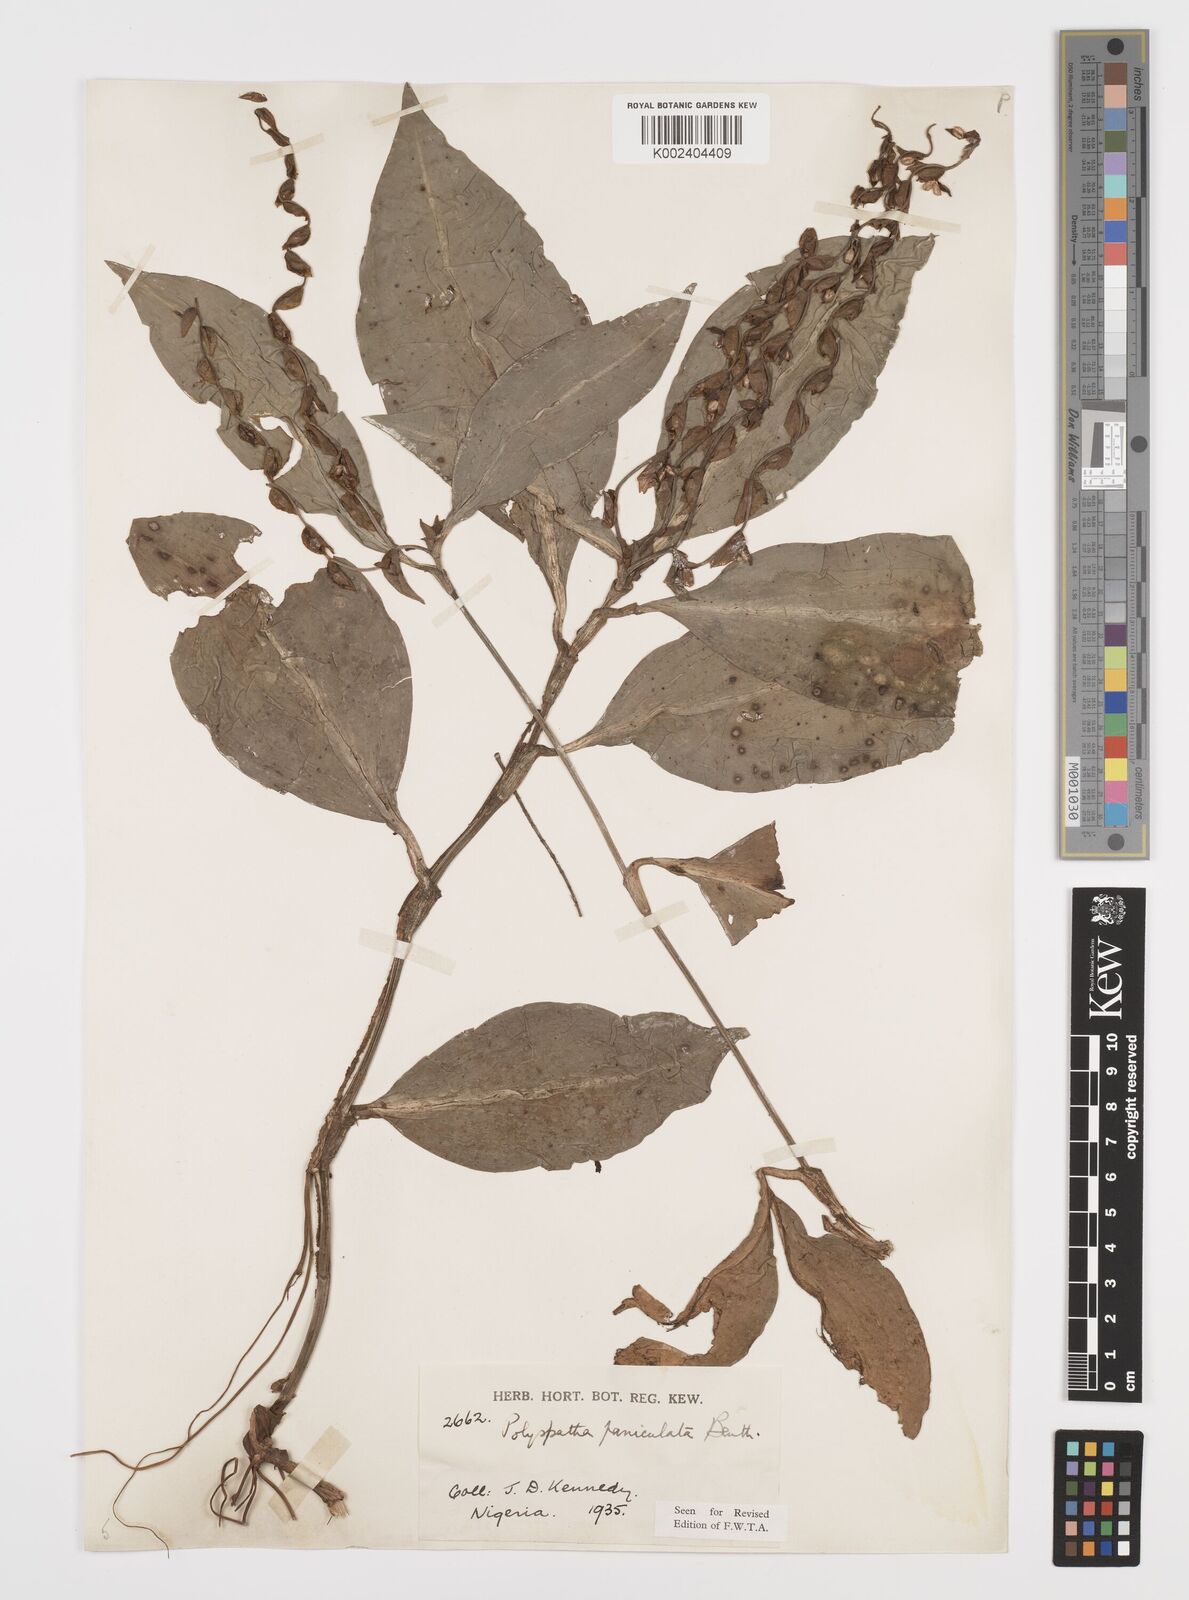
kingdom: Plantae
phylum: Tracheophyta
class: Liliopsida
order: Commelinales
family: Commelinaceae
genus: Polyspatha
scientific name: Polyspatha paniculata
